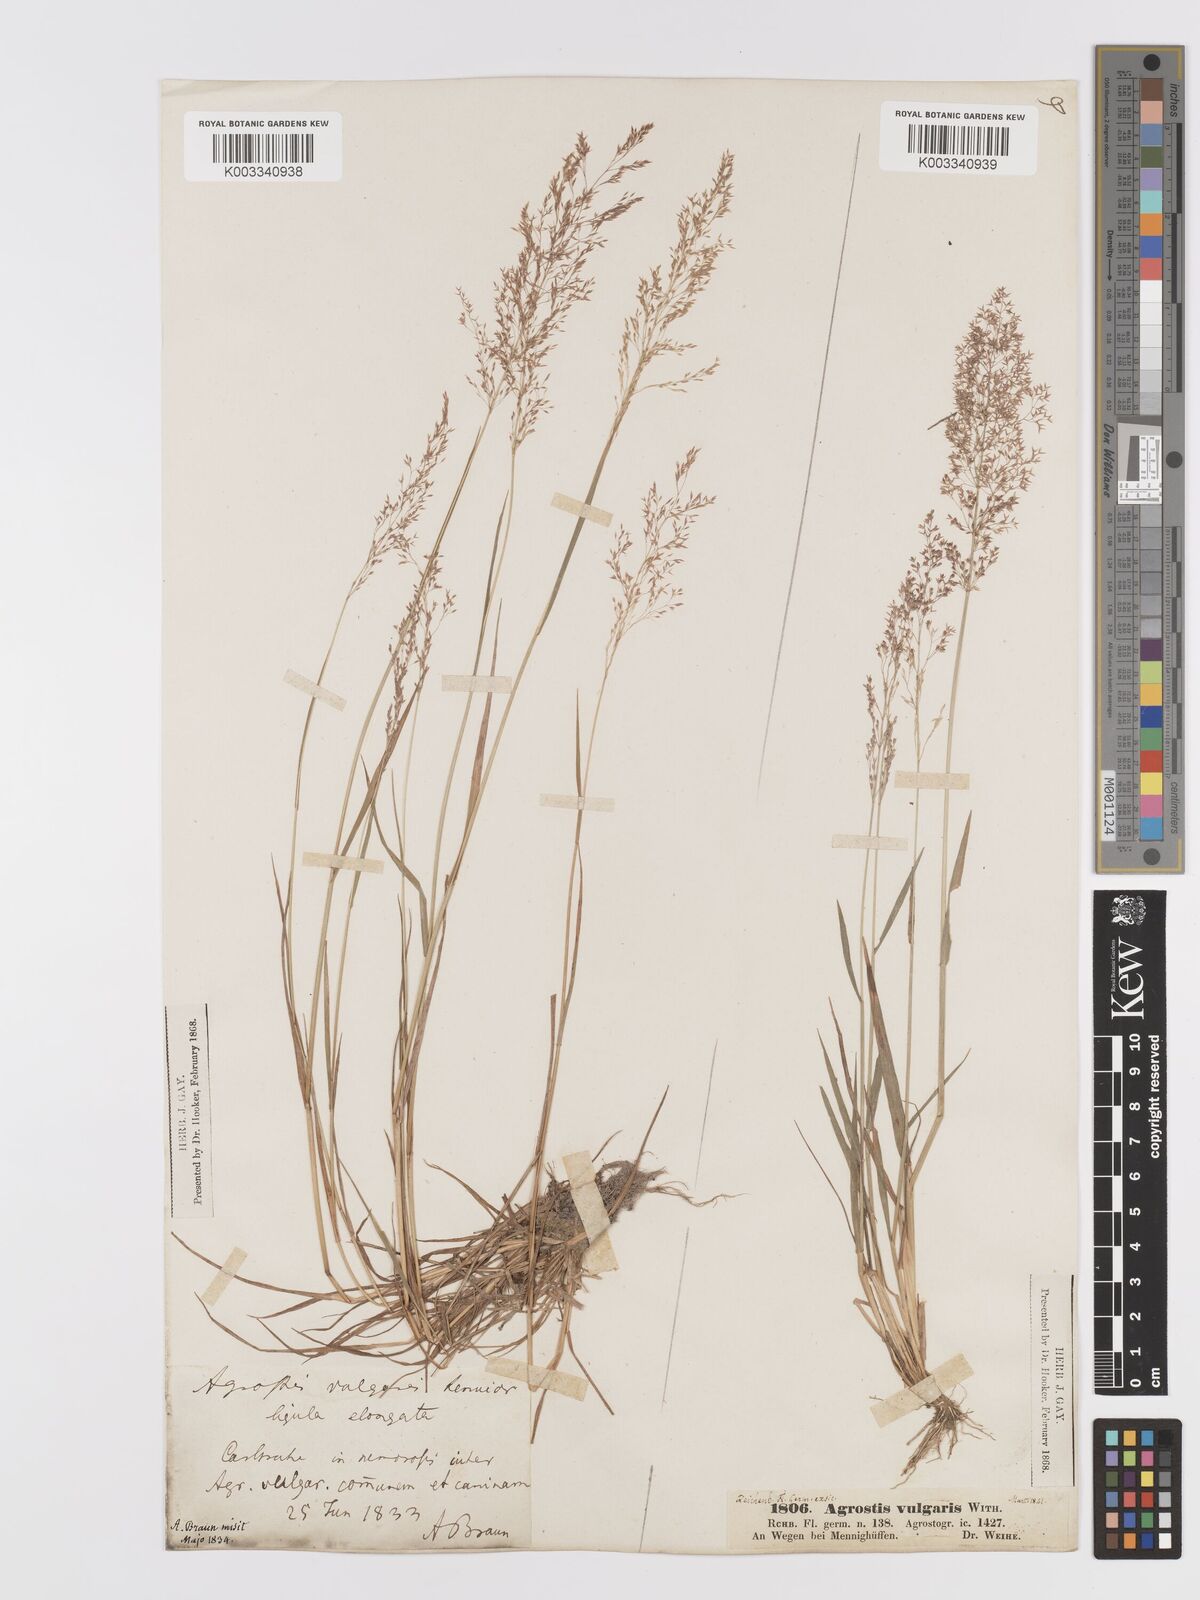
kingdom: Plantae
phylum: Tracheophyta
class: Liliopsida
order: Poales
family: Poaceae
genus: Agrostis
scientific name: Agrostis capillaris
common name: Colonial bentgrass
